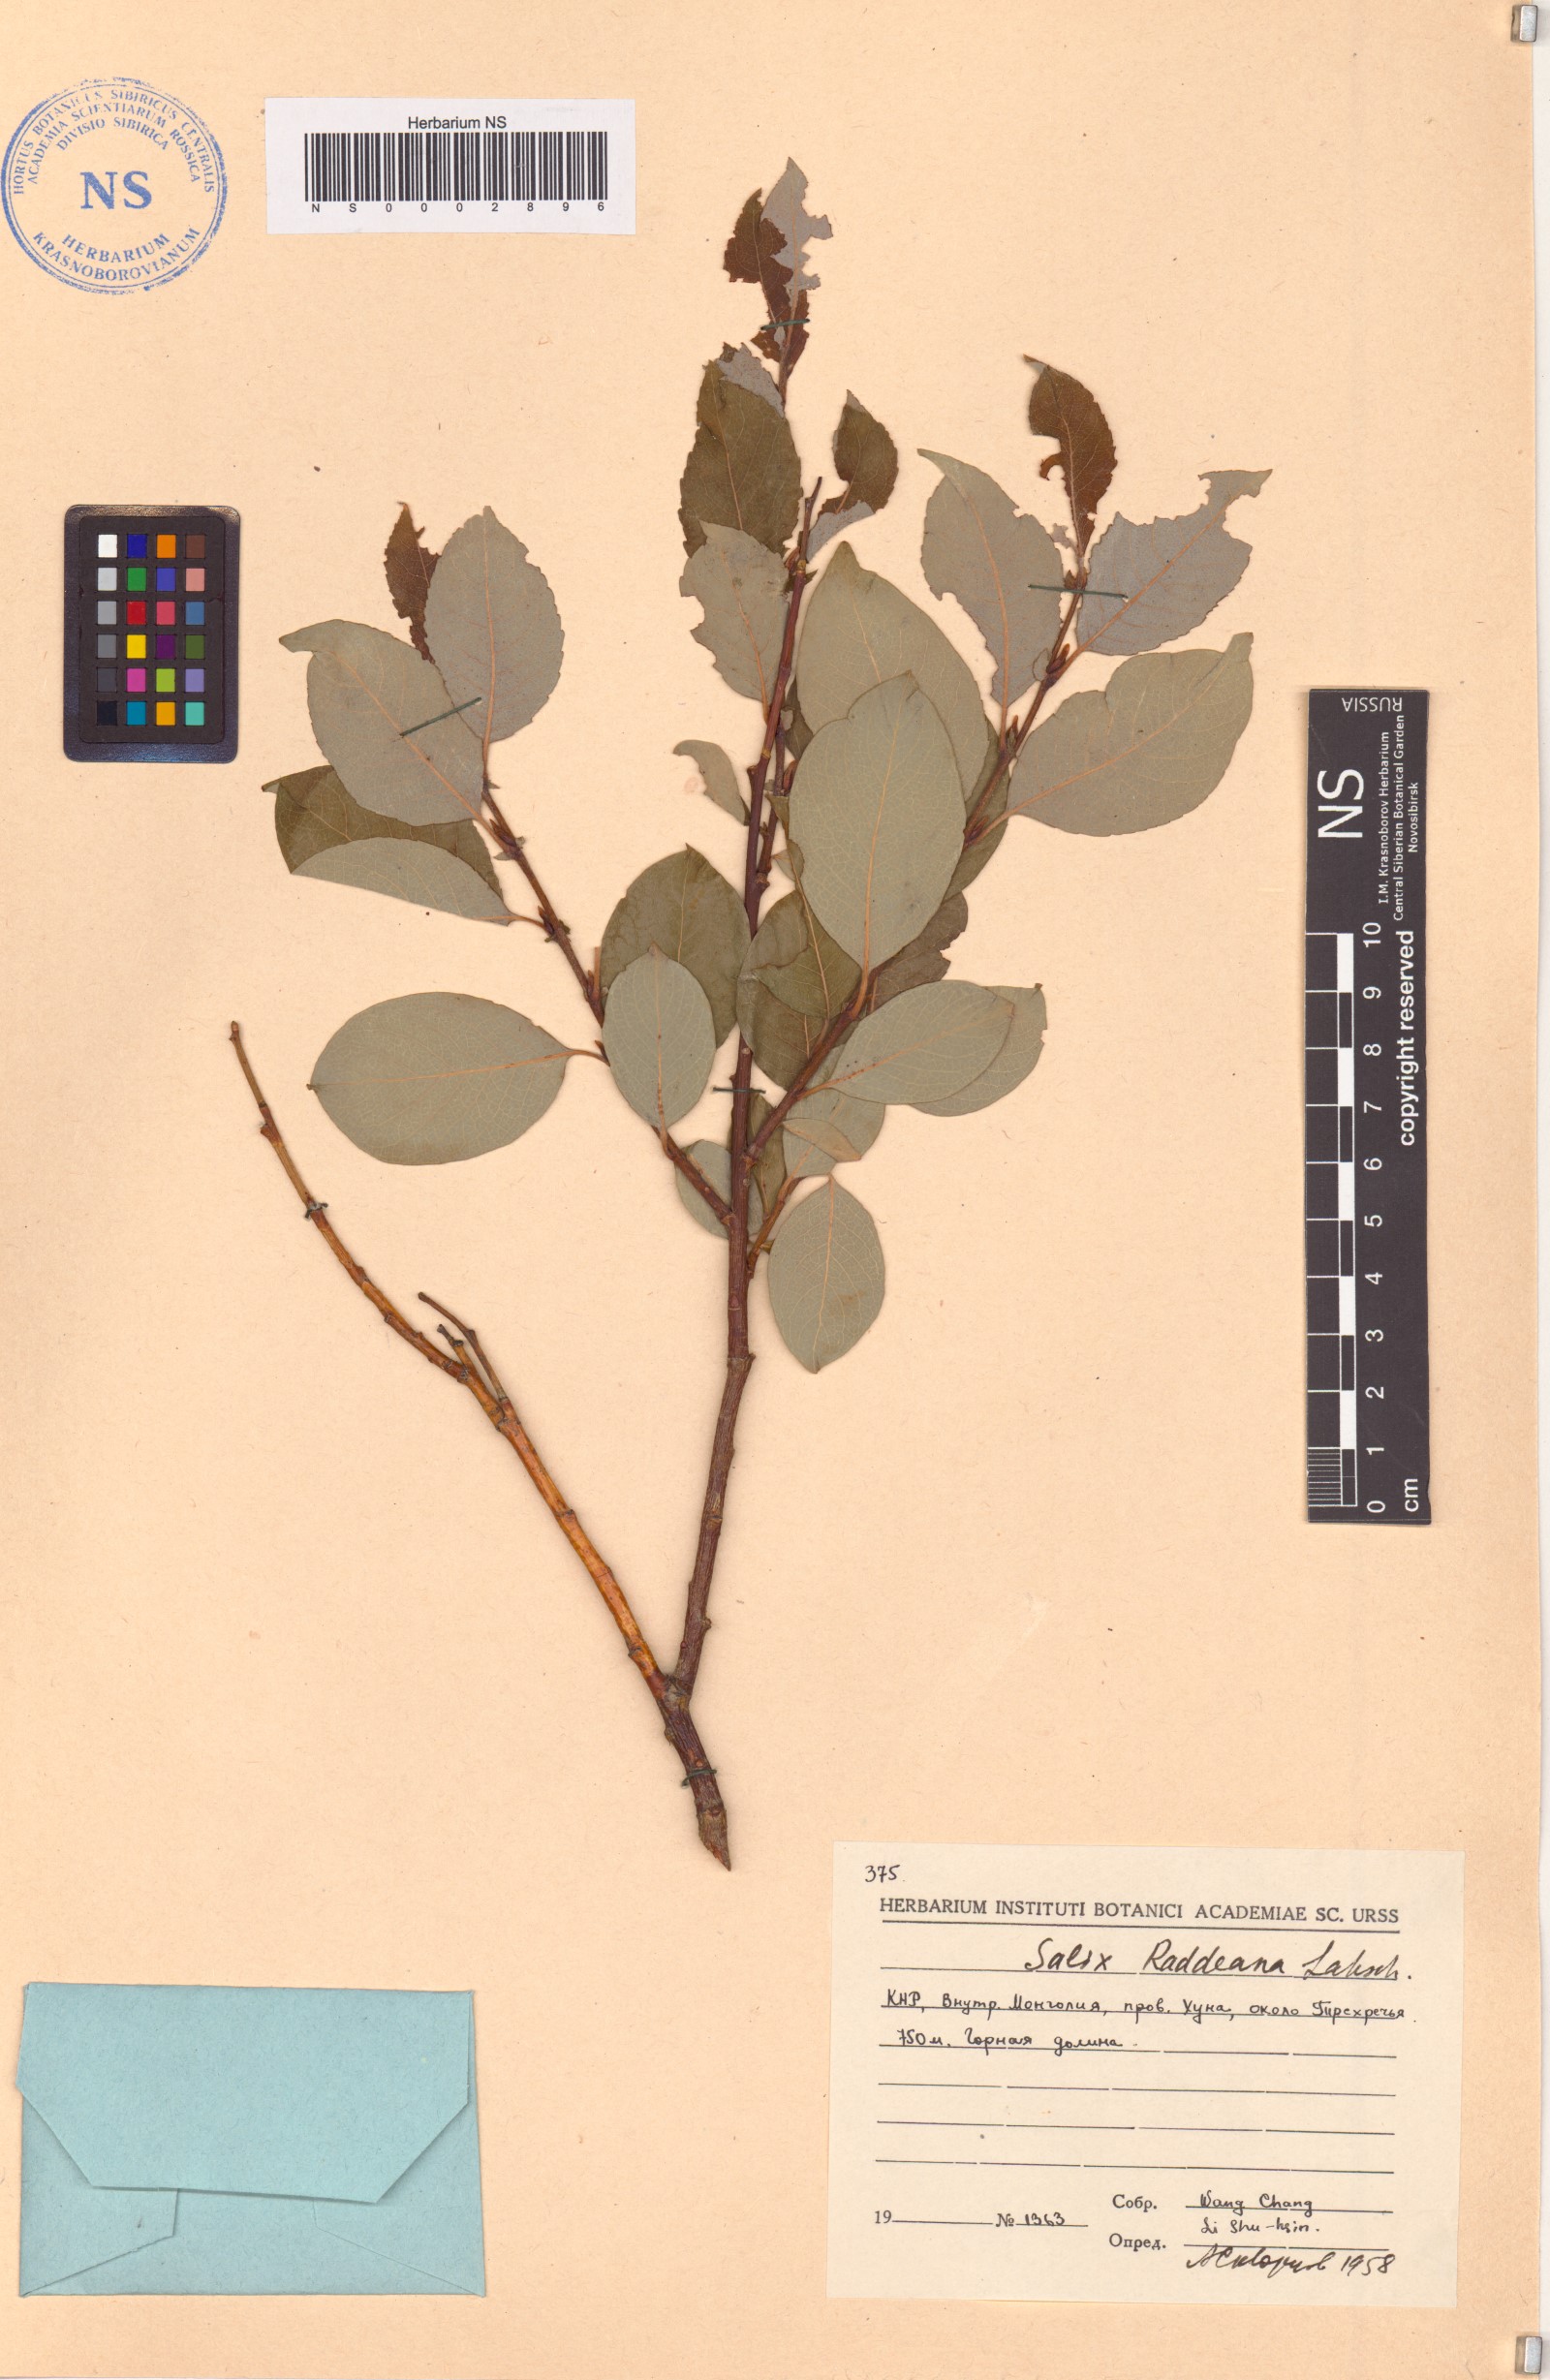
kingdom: Plantae
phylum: Tracheophyta
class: Magnoliopsida
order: Malpighiales
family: Salicaceae
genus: Salix
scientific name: Salix abscondita
